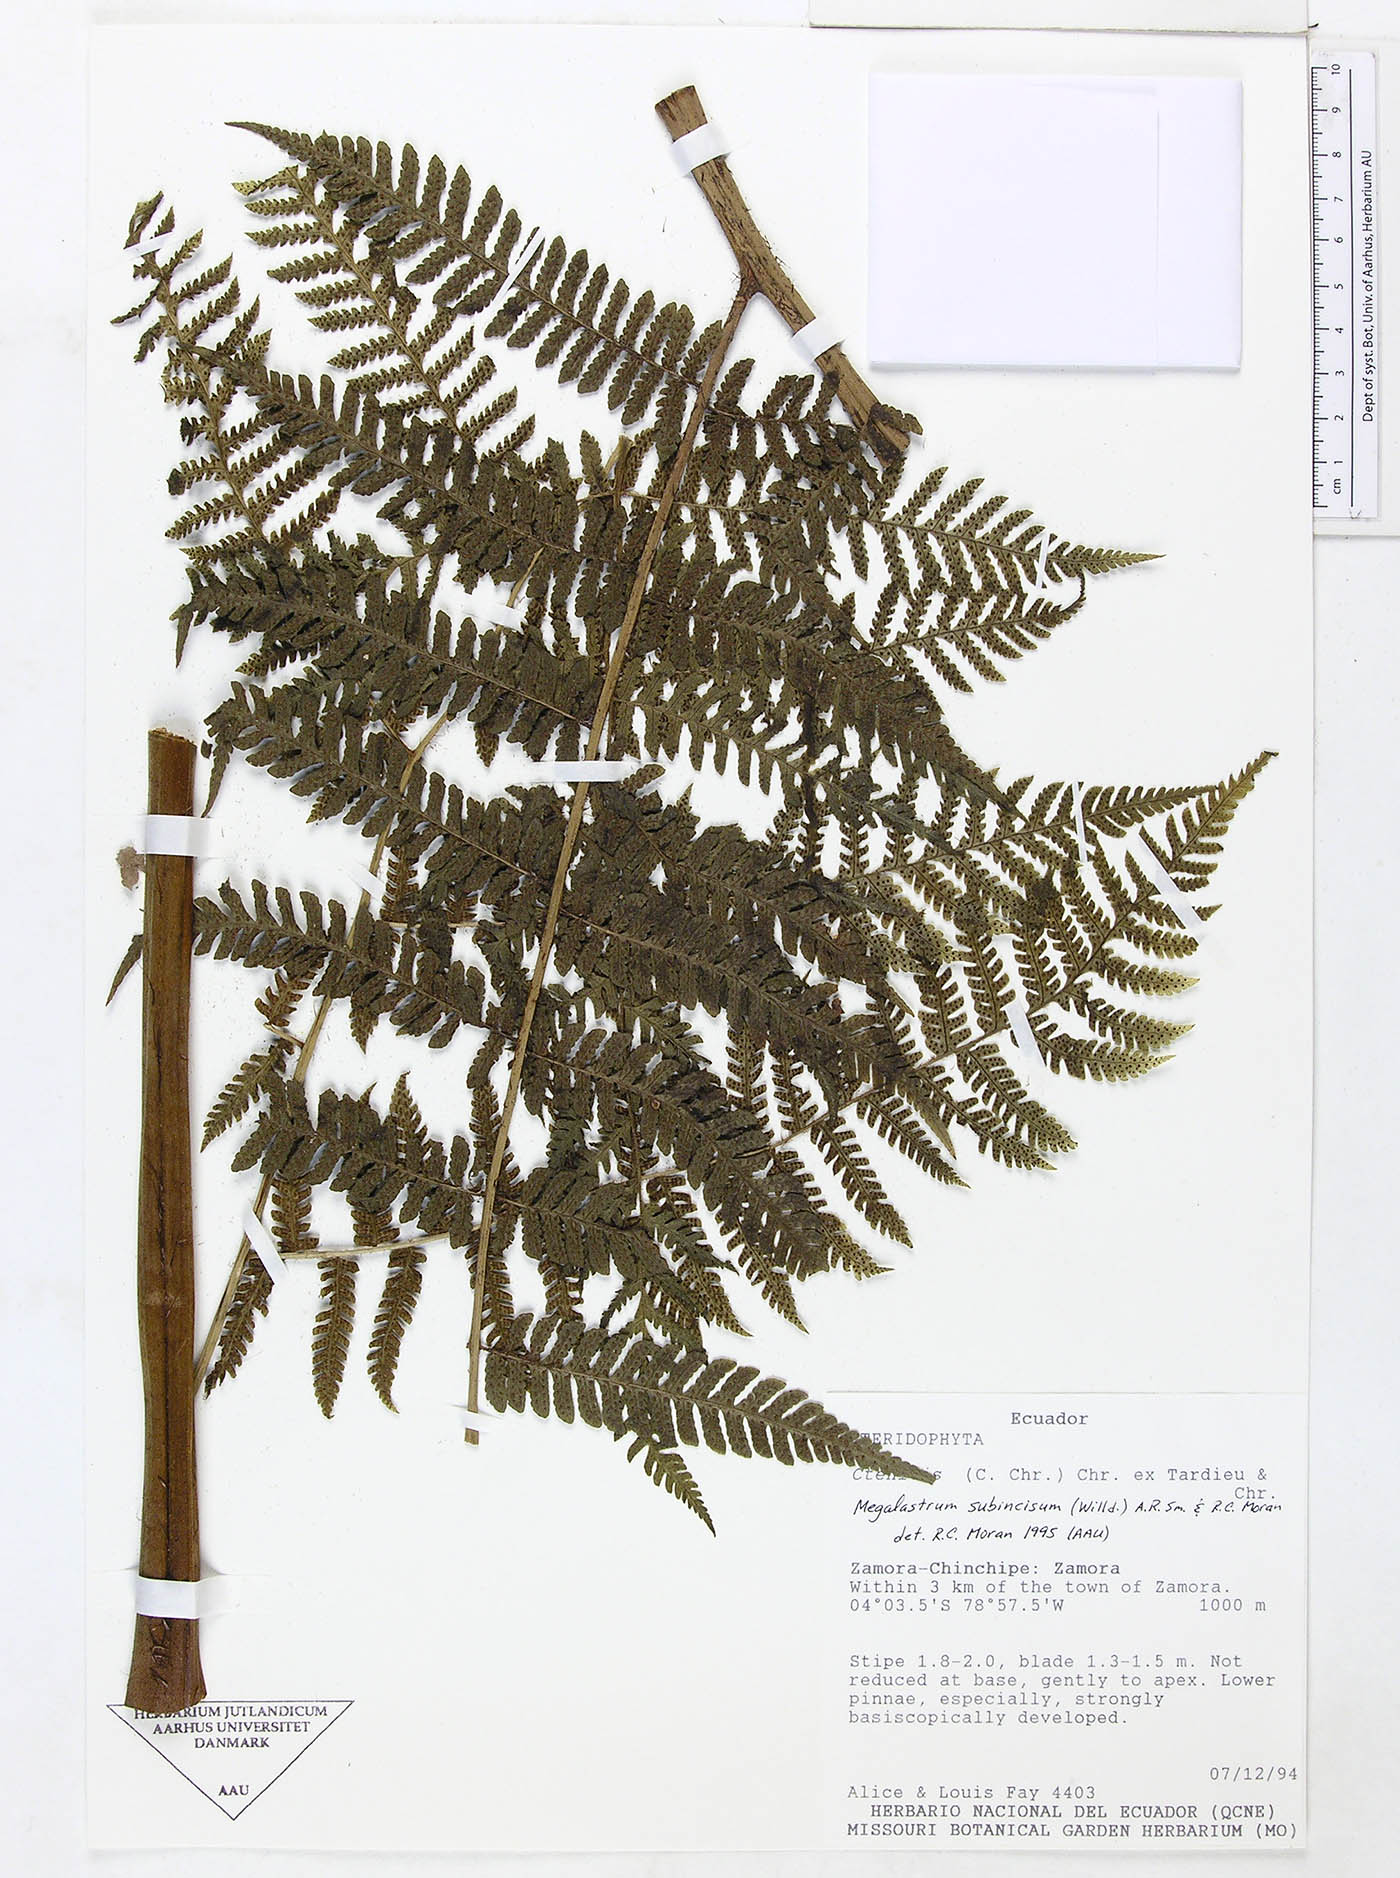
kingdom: Plantae
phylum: Tracheophyta
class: Polypodiopsida
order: Polypodiales
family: Dryopteridaceae
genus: Megalastrum
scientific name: Megalastrum praetermissum
